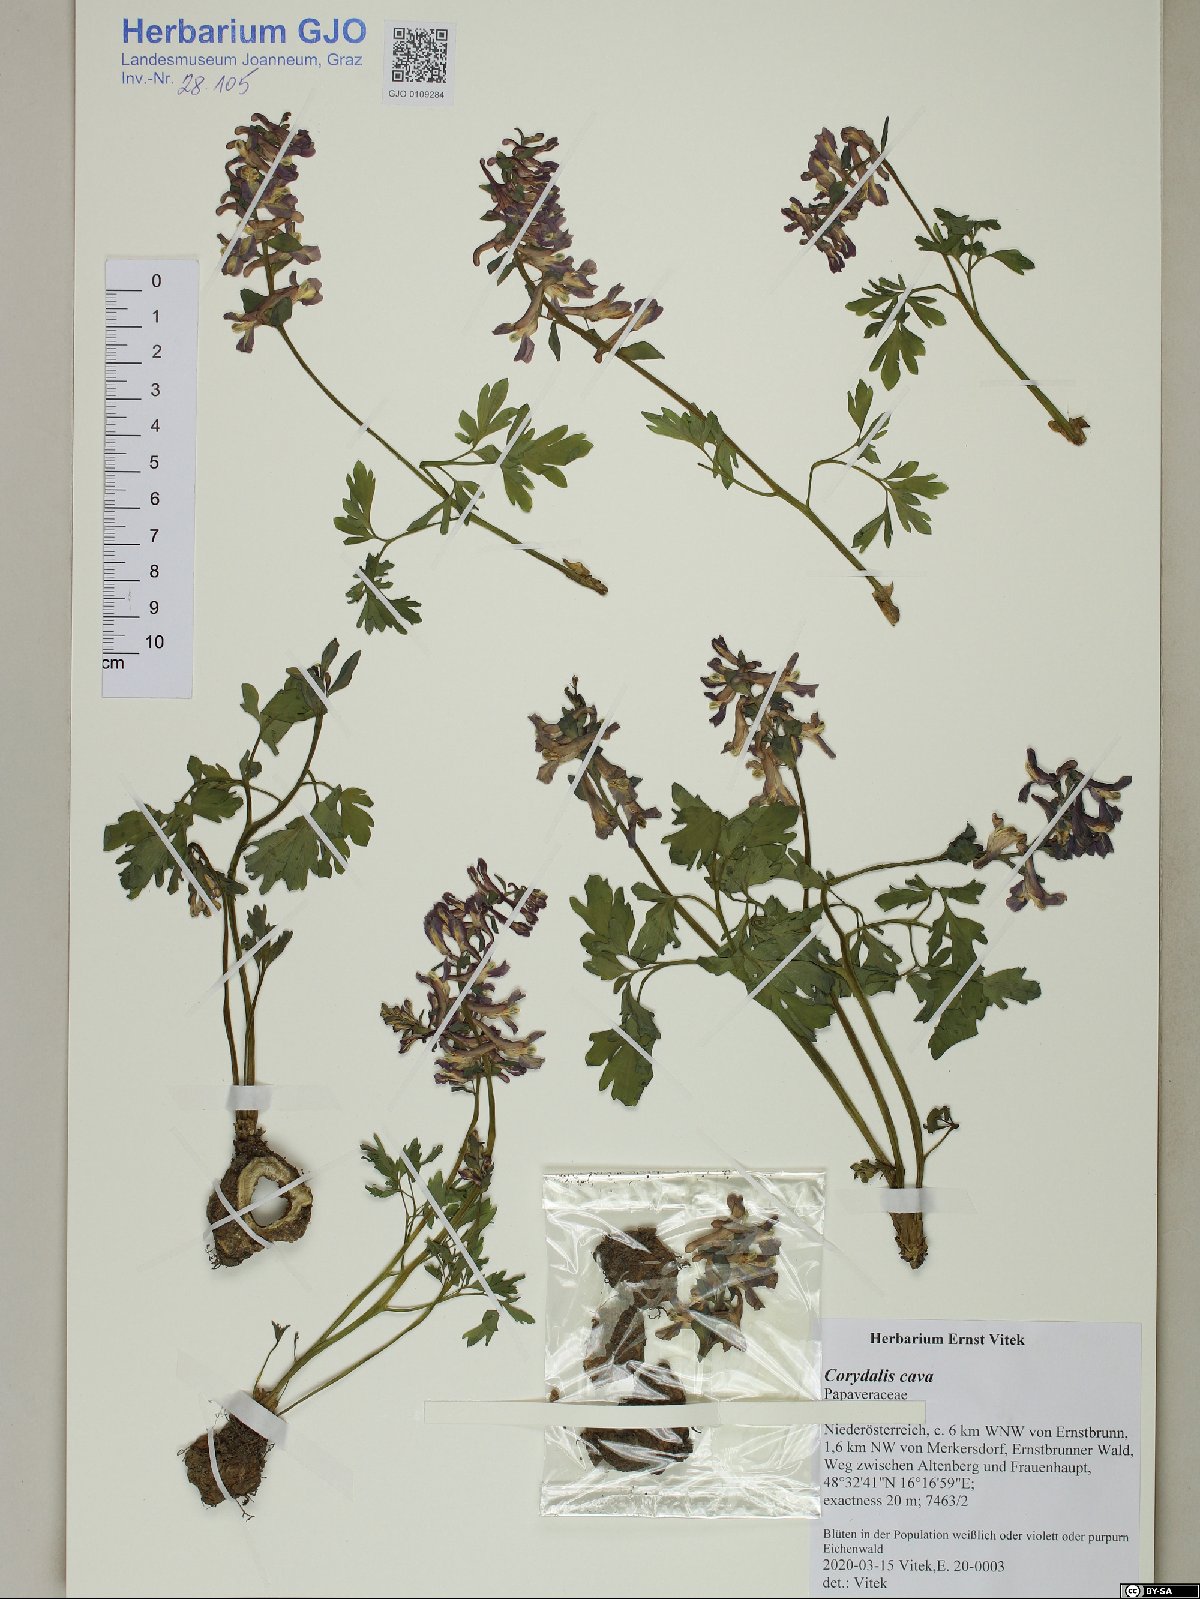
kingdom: Plantae
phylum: Tracheophyta
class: Magnoliopsida
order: Ranunculales
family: Papaveraceae
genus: Corydalis
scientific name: Corydalis cava
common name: Hollowroot
